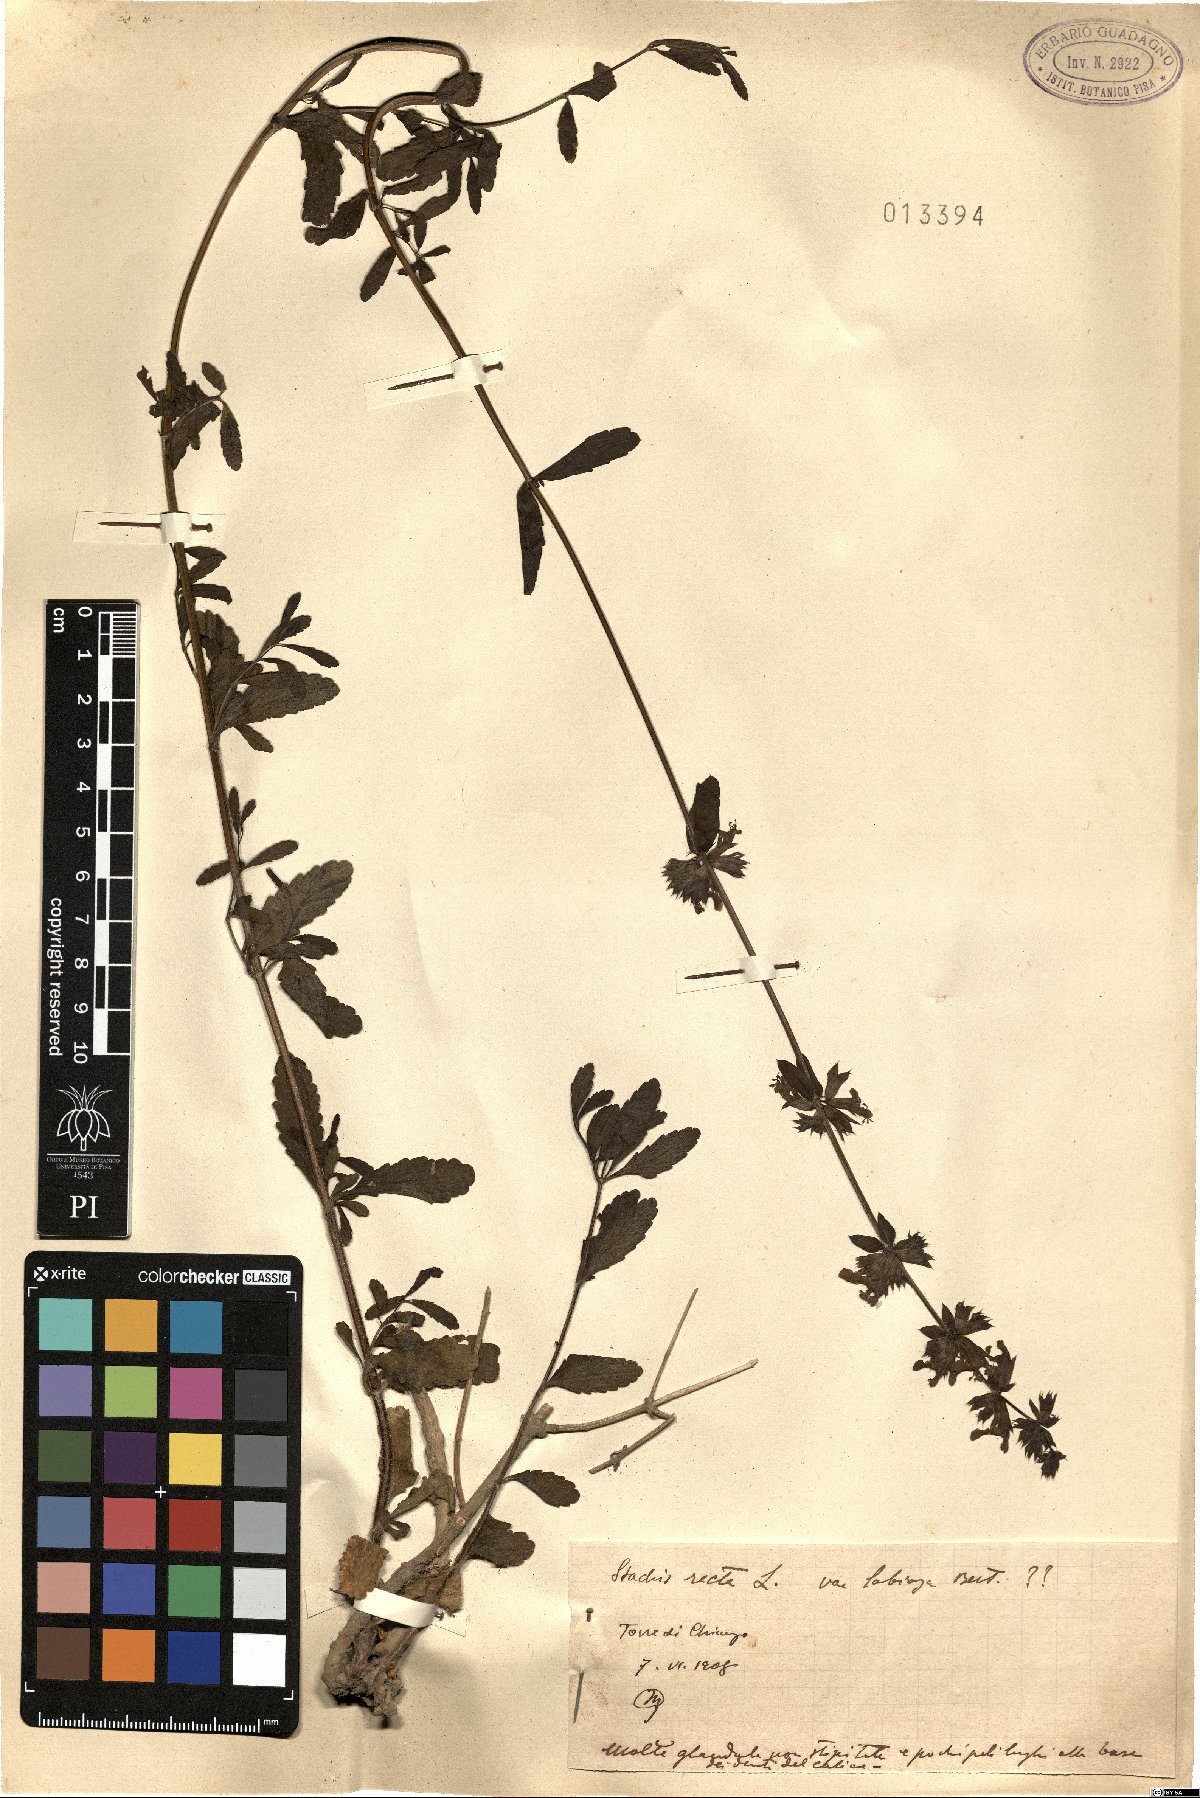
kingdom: Plantae
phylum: Tracheophyta
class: Magnoliopsida
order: Lamiales
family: Lamiaceae
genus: Stachys
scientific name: Stachys recta
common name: Perennial yellow-woundwort
